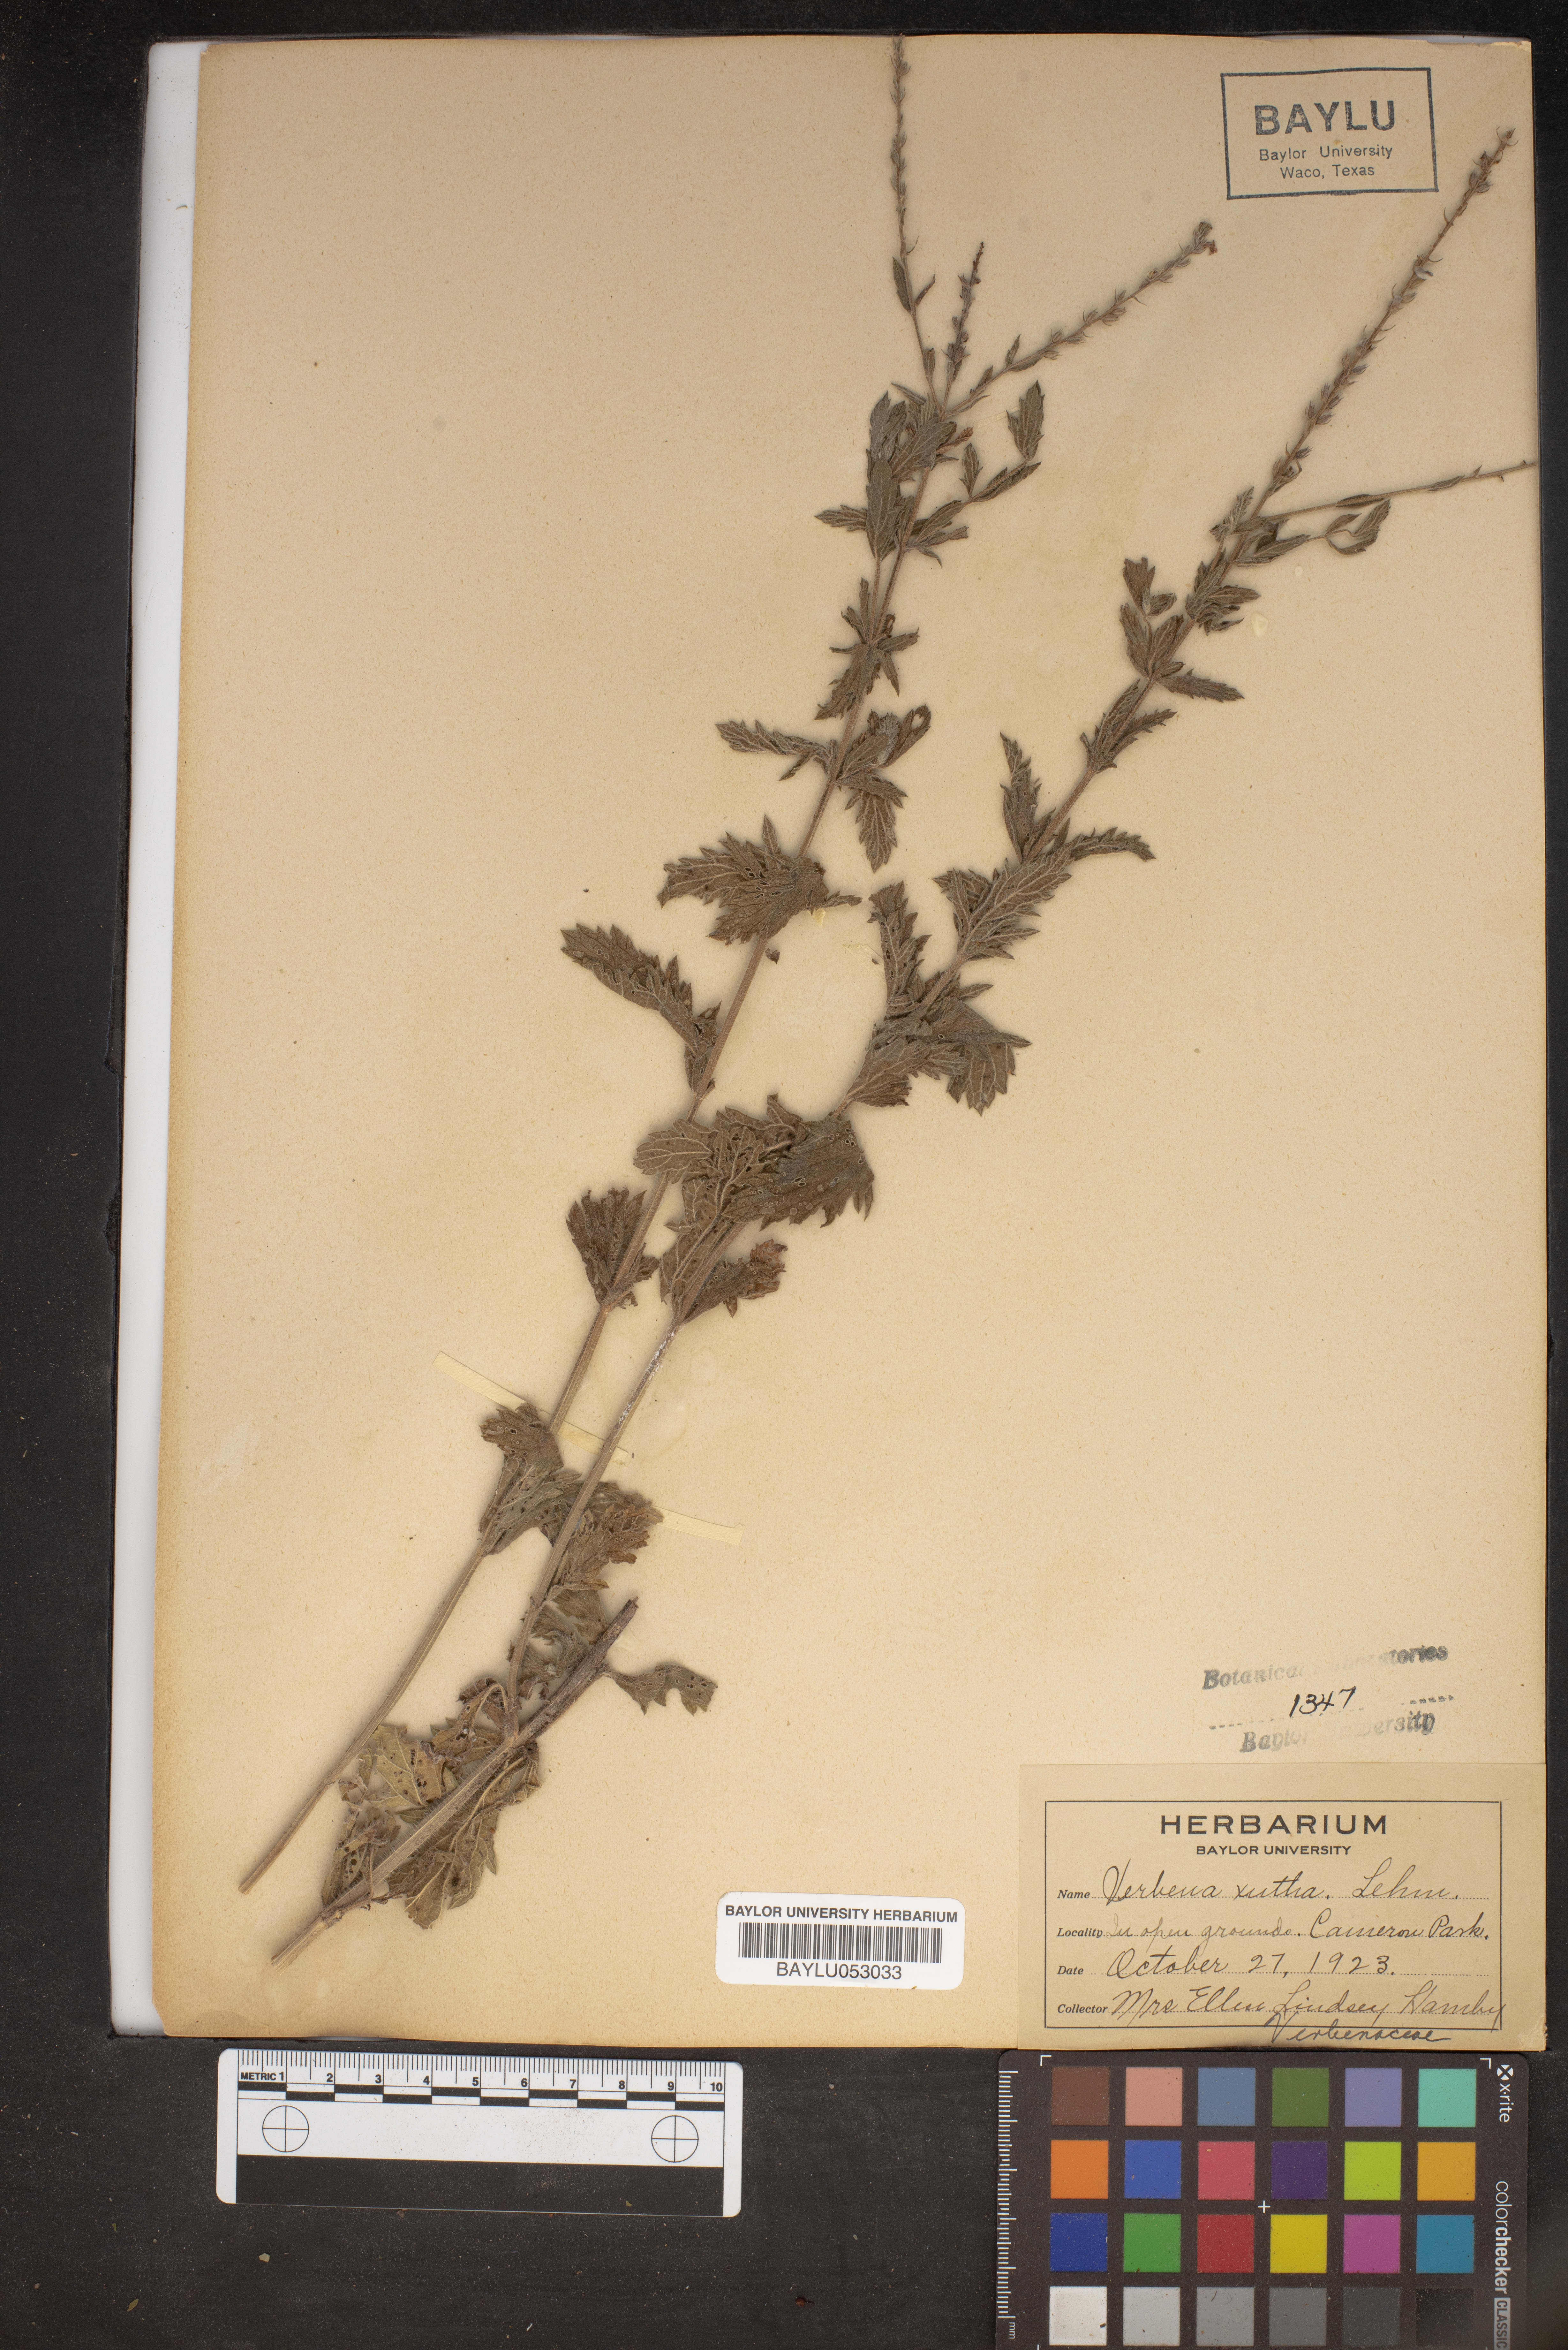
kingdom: Plantae
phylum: Tracheophyta
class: Magnoliopsida
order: Lamiales
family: Verbenaceae
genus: Verbena
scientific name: Verbena xutha
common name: Gulf vervain
